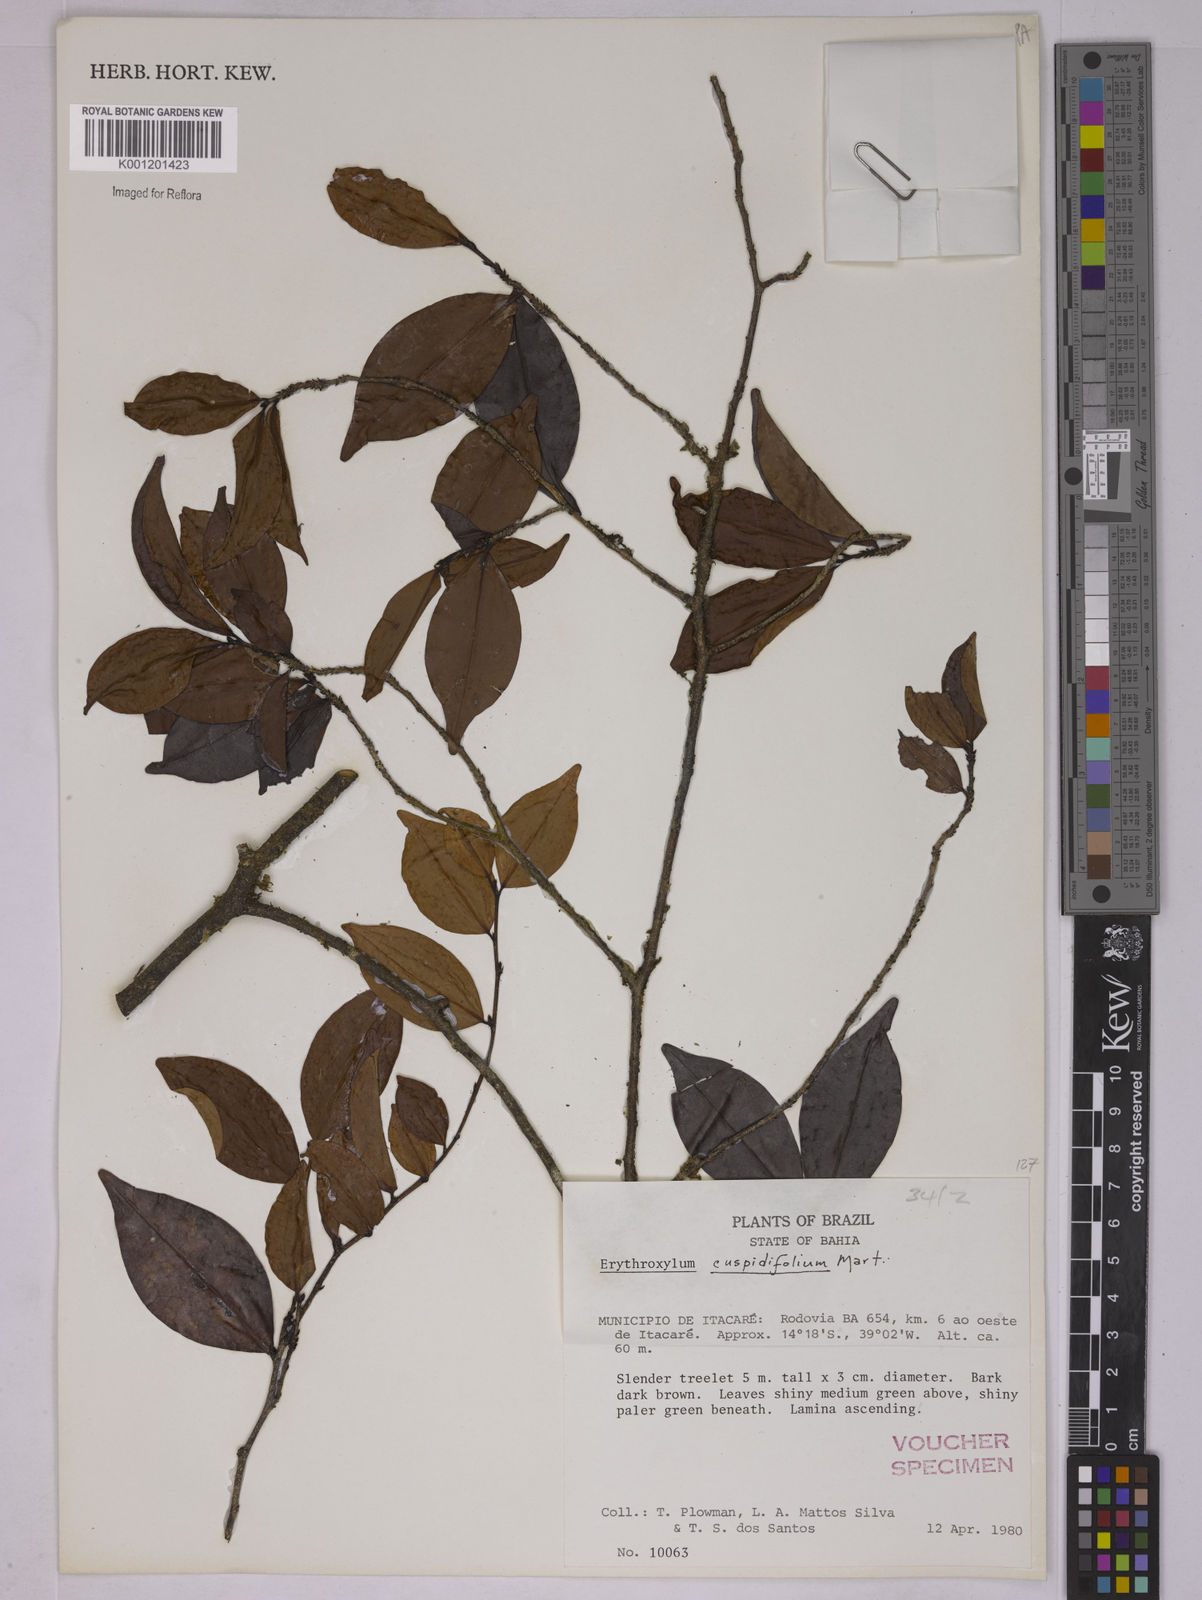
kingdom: Plantae
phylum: Tracheophyta
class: Magnoliopsida
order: Malpighiales
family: Erythroxylaceae
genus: Erythroxylum
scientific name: Erythroxylum cuspidifolium
